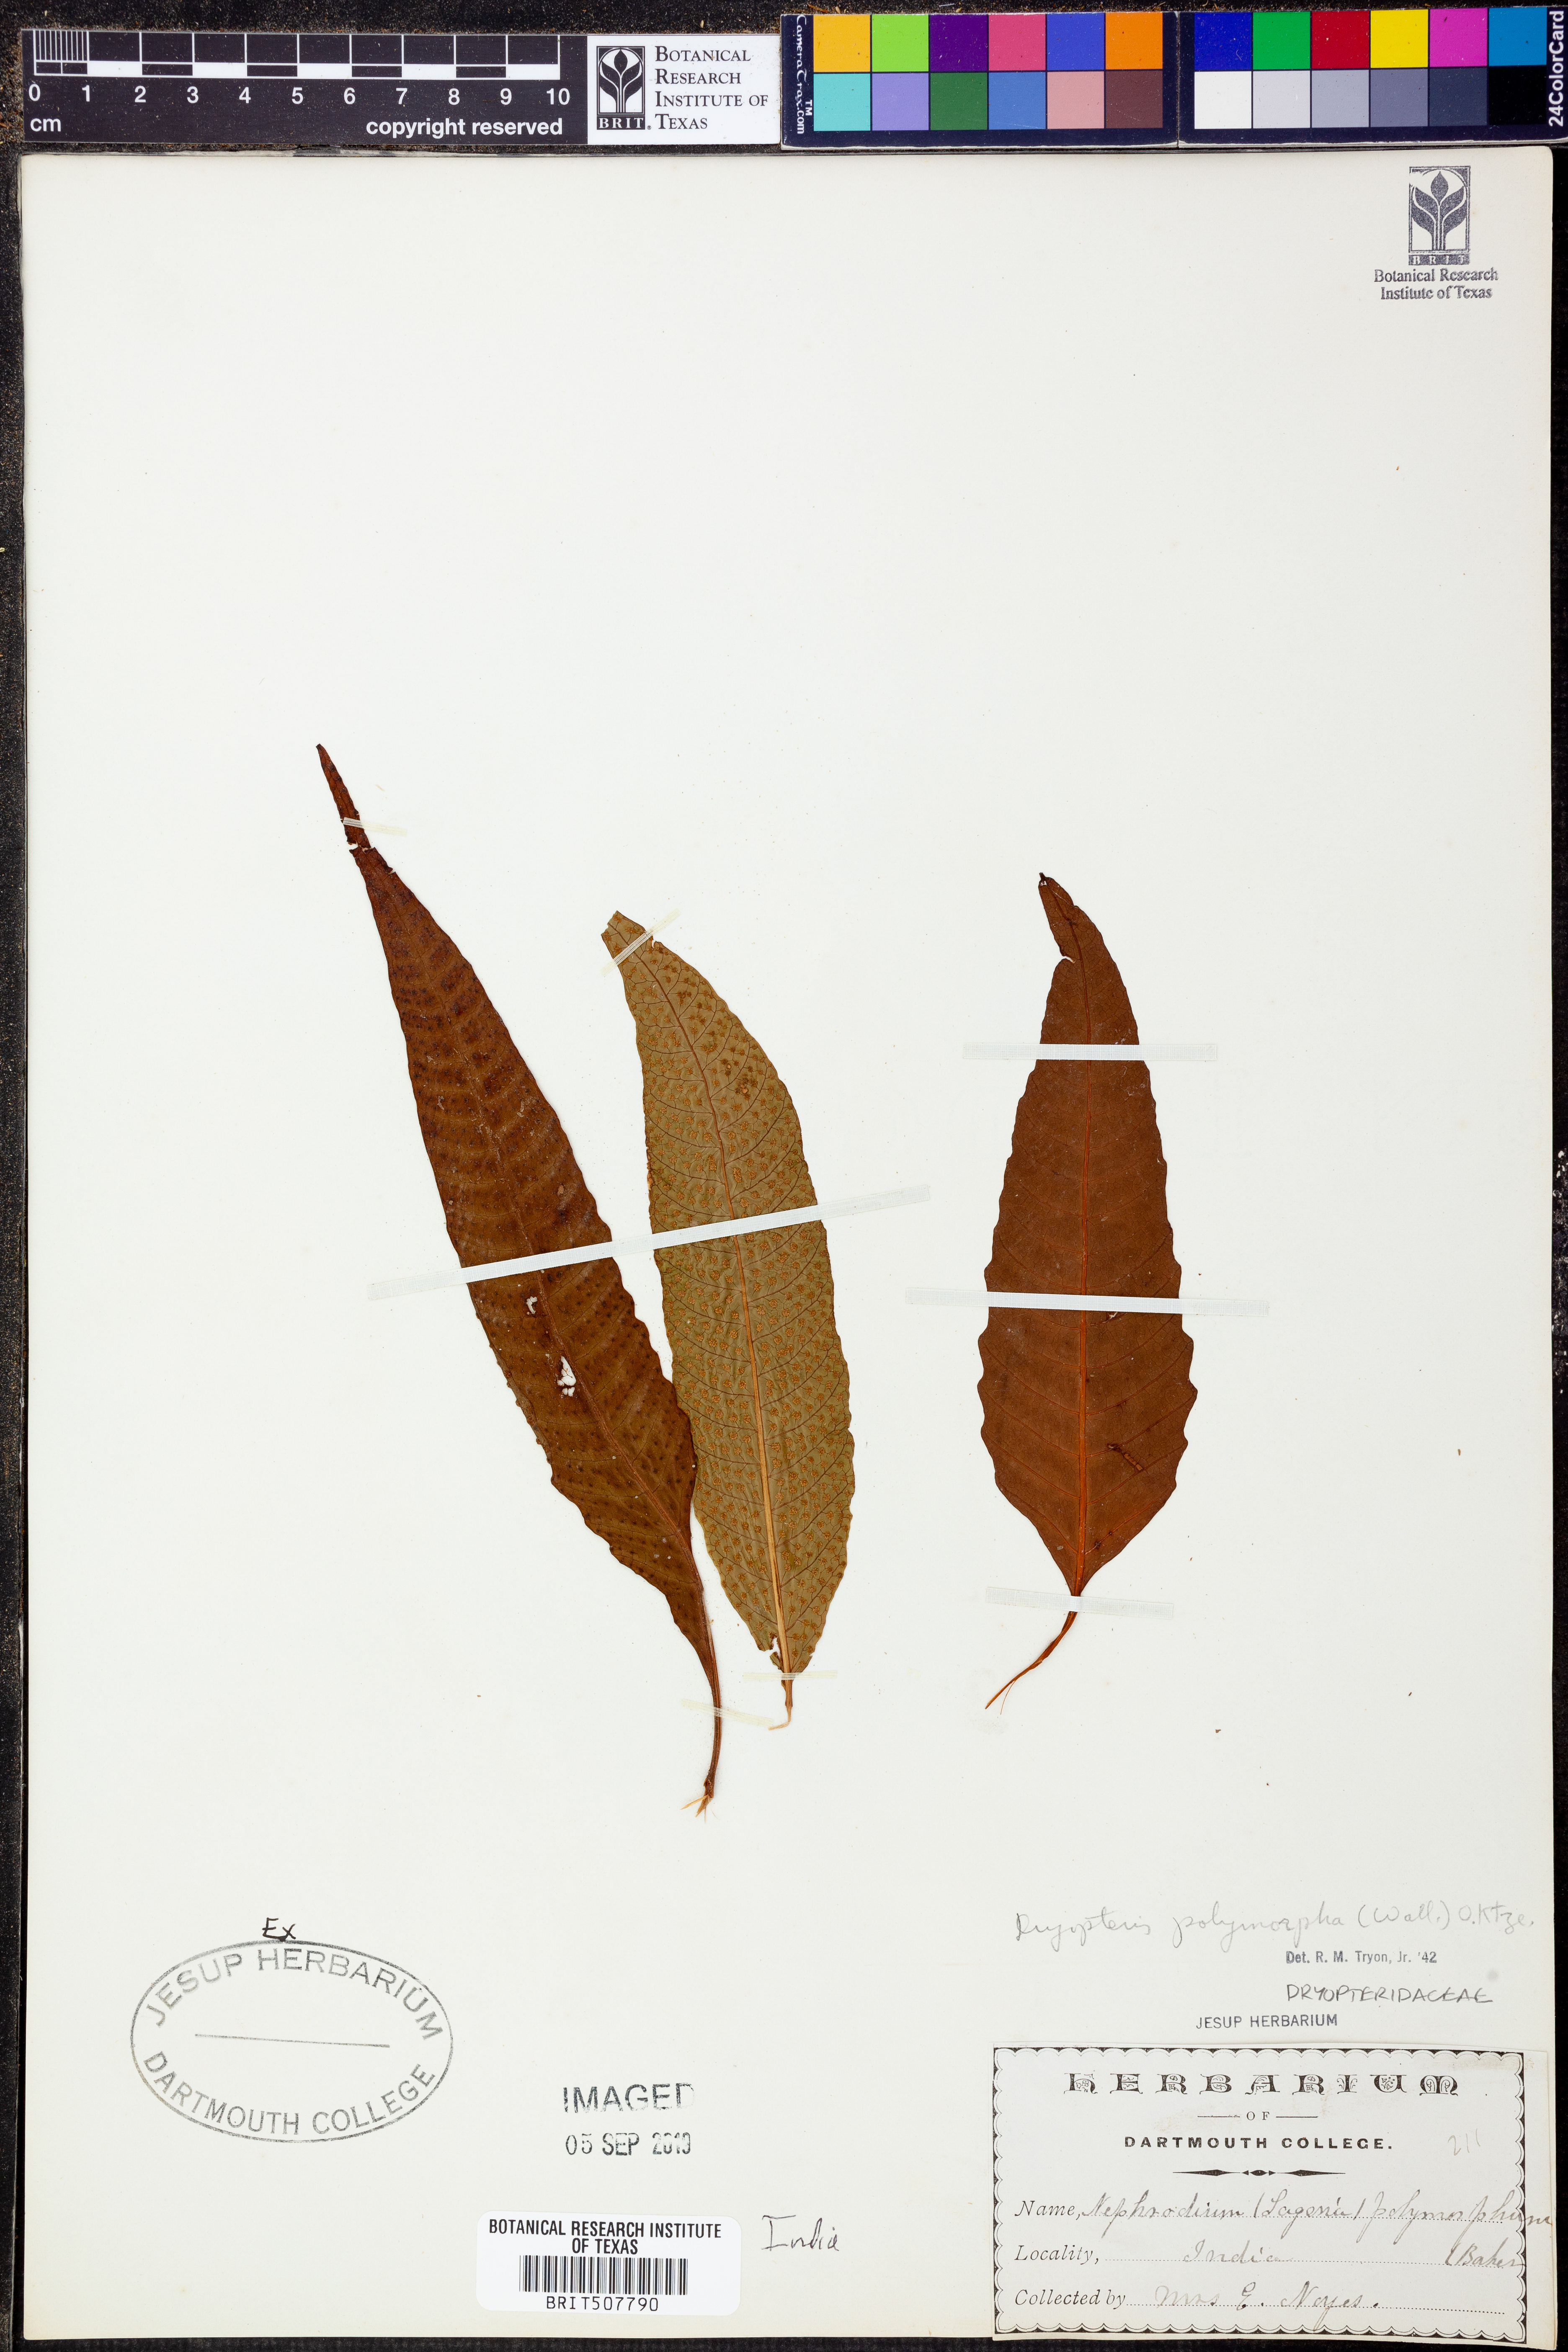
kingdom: Plantae
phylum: Tracheophyta
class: Polypodiopsida
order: Polypodiales
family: Tectariaceae
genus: Tectaria
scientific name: Tectaria polymorpha
